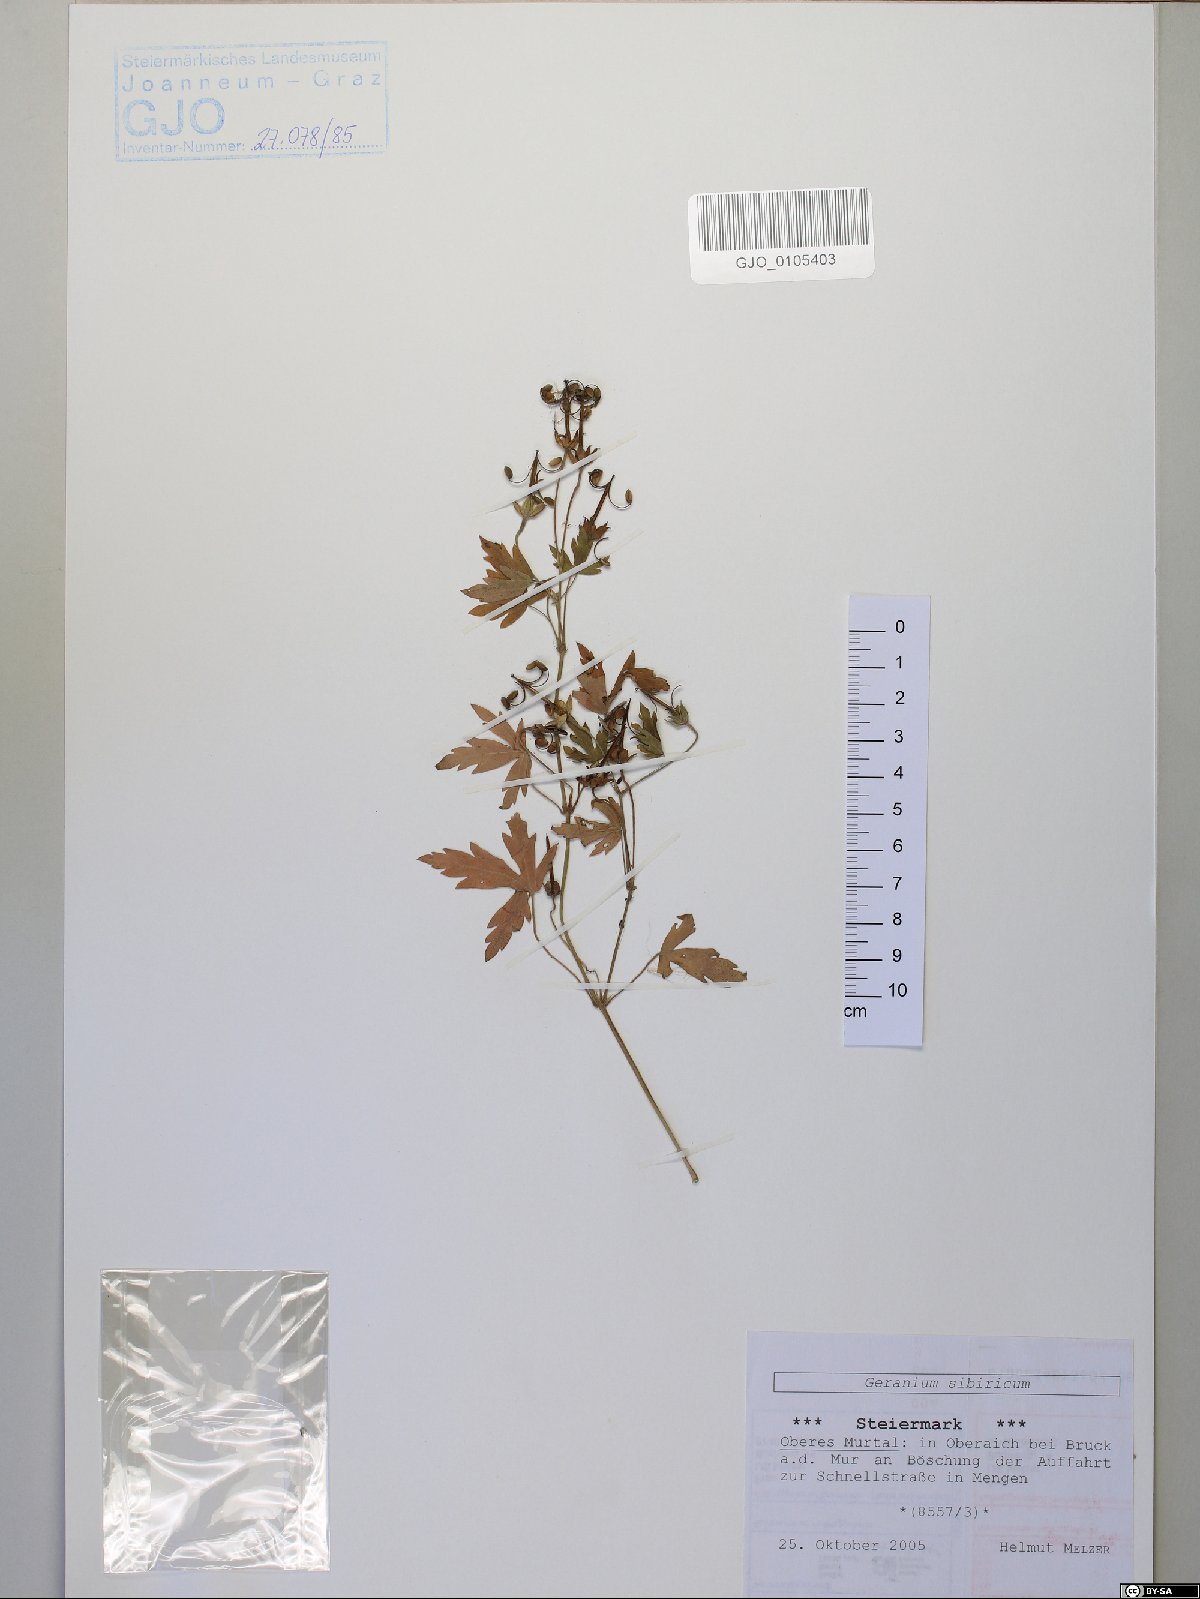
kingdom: Plantae
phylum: Tracheophyta
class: Magnoliopsida
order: Geraniales
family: Geraniaceae
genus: Geranium
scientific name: Geranium sibiricum
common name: Siberian crane's-bill
